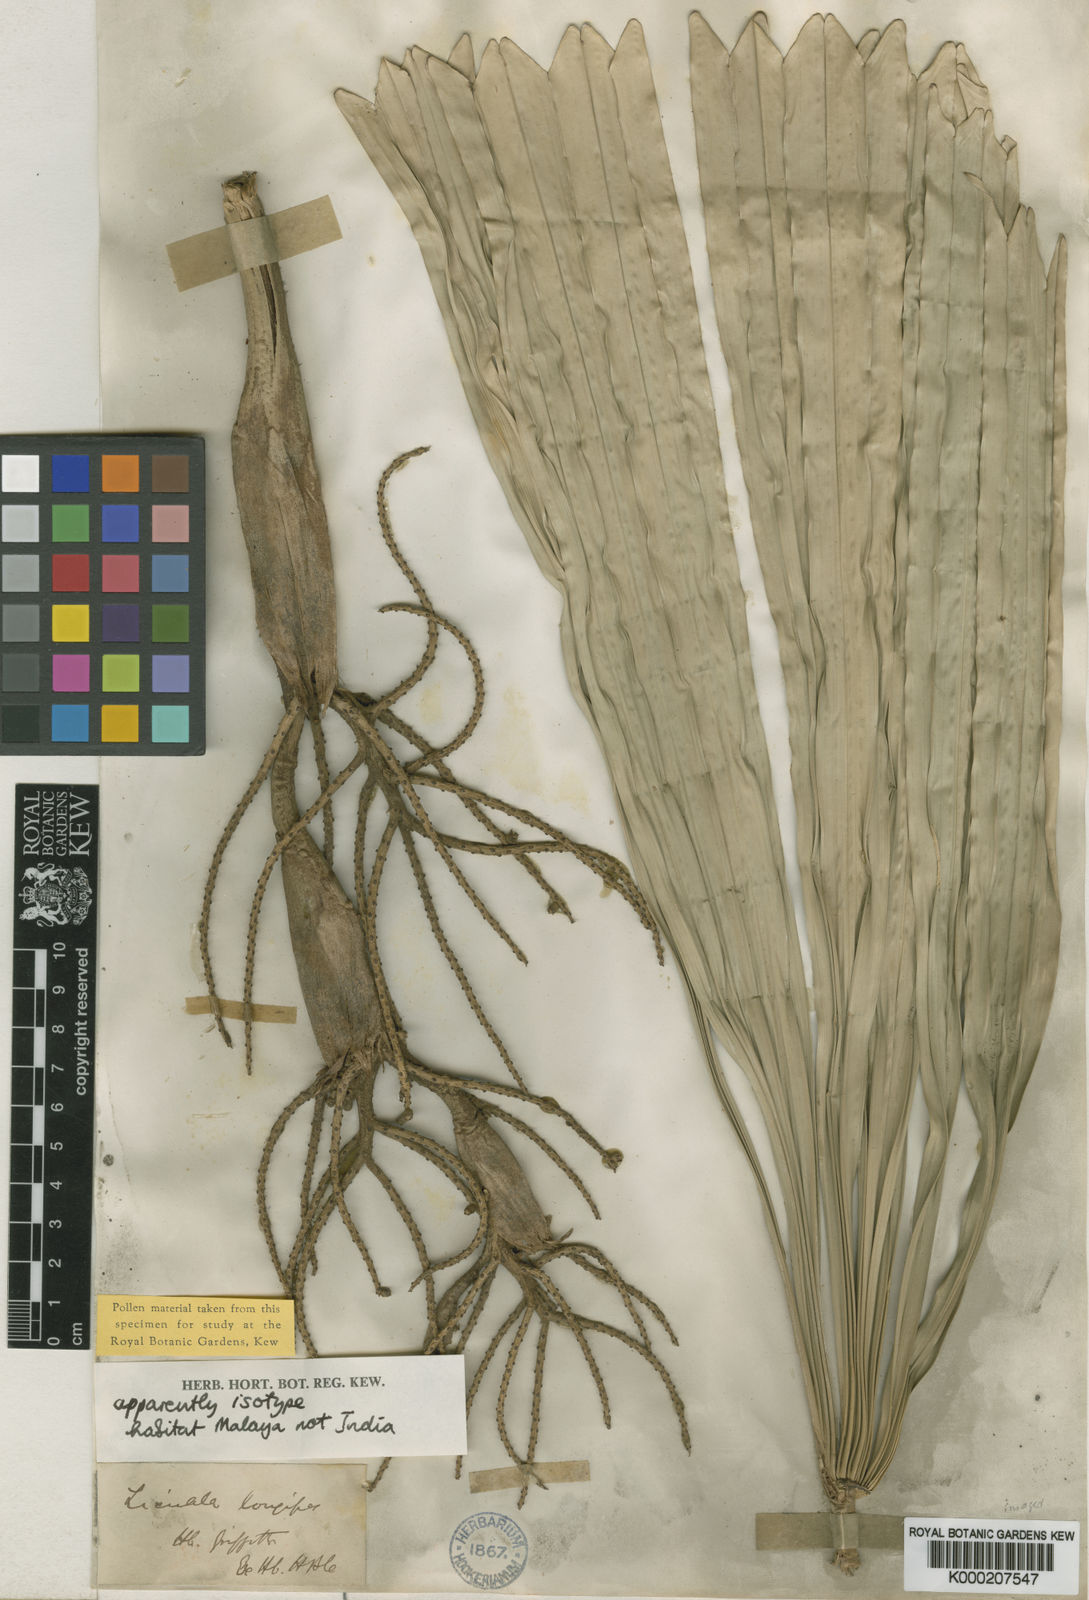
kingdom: Plantae
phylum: Tracheophyta
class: Liliopsida
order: Arecales
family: Arecaceae
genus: Licuala
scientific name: Licuala longipes
